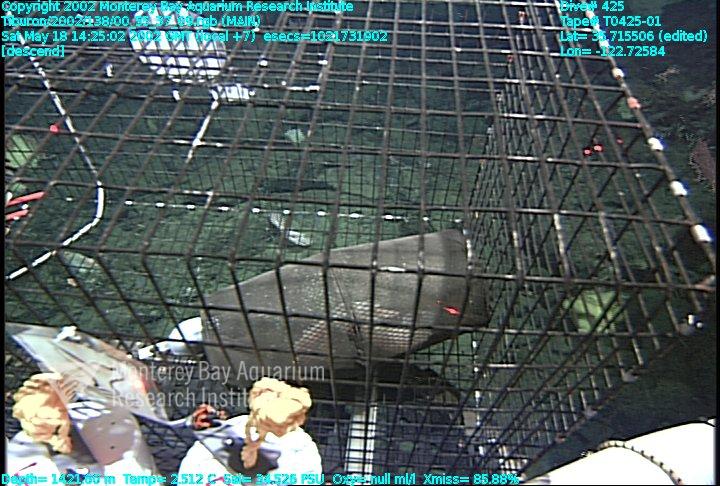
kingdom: Animalia
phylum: Porifera
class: Hexactinellida
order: Lyssacinosida
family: Rossellidae
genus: Staurocalyptus
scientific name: Staurocalyptus
